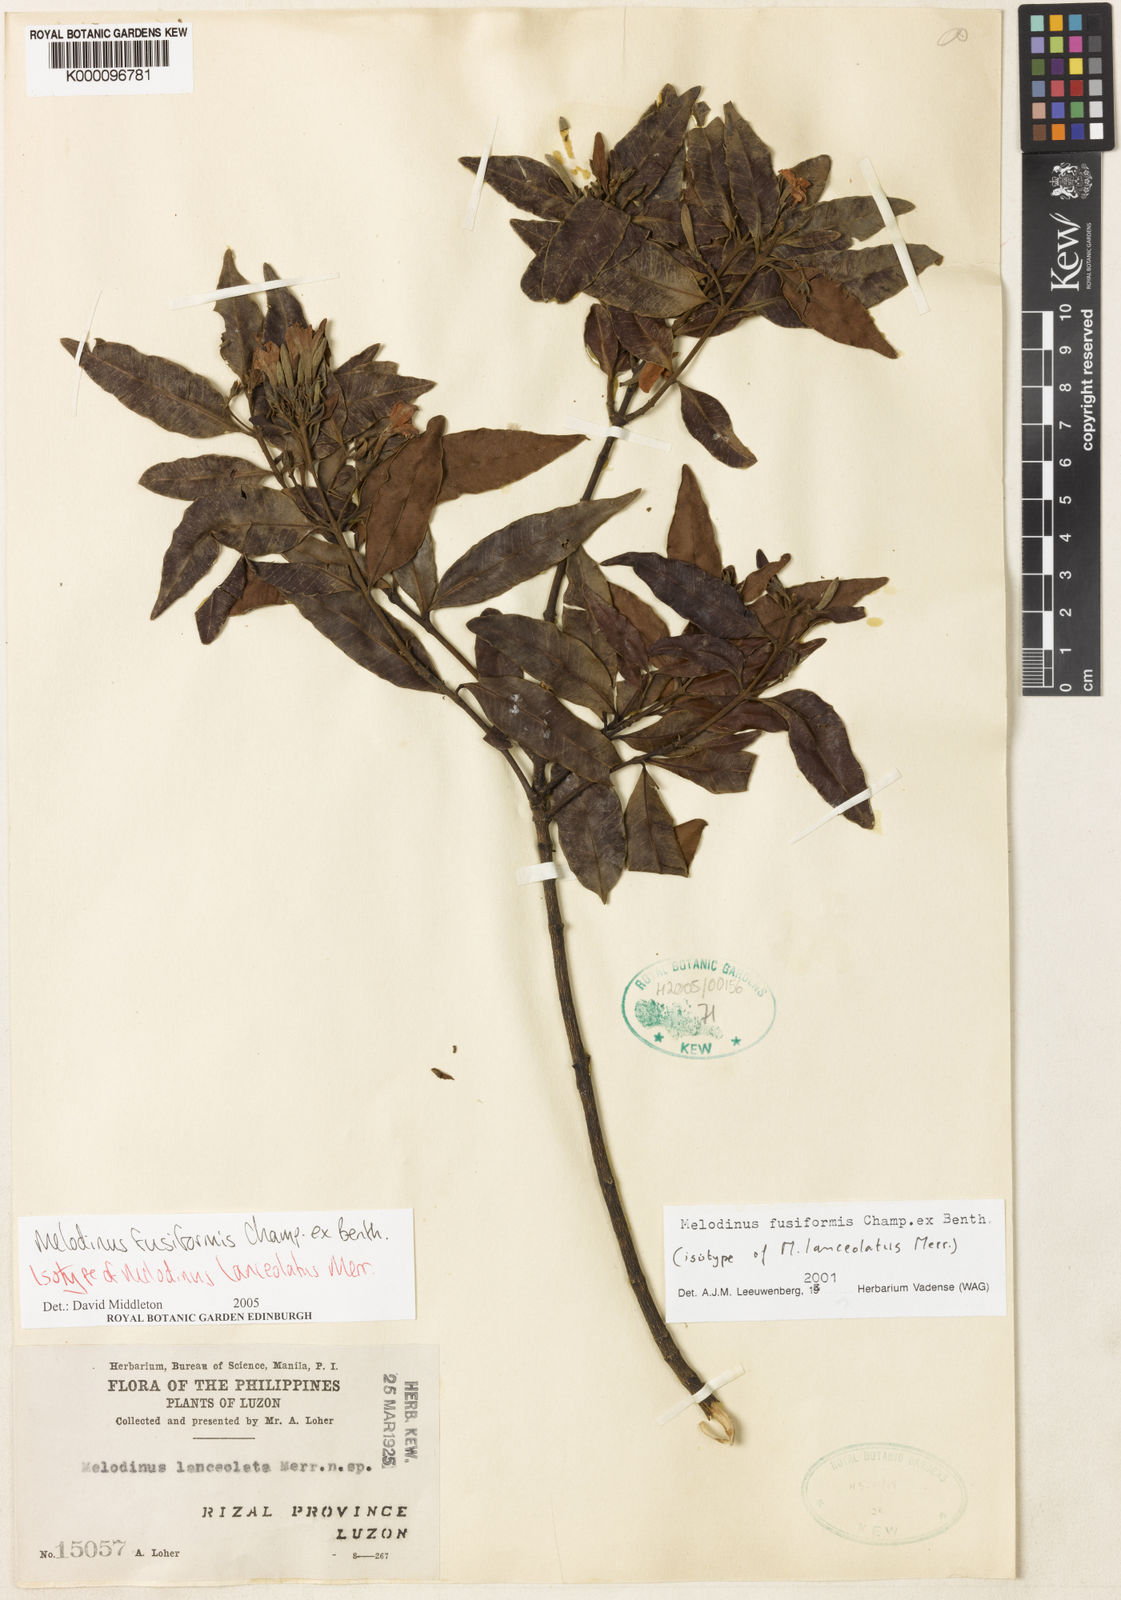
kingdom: Plantae
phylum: Tracheophyta
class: Magnoliopsida
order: Gentianales
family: Apocynaceae
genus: Melodinus
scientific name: Melodinus fusiformis
